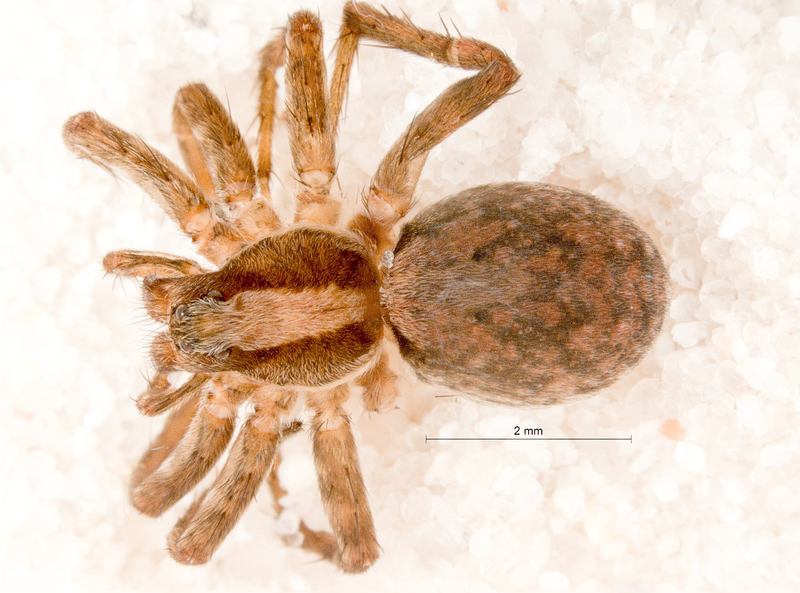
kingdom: Animalia
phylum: Arthropoda
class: Arachnida
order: Araneae
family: Lycosidae
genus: Xerolycosa
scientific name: Xerolycosa nemoralis
